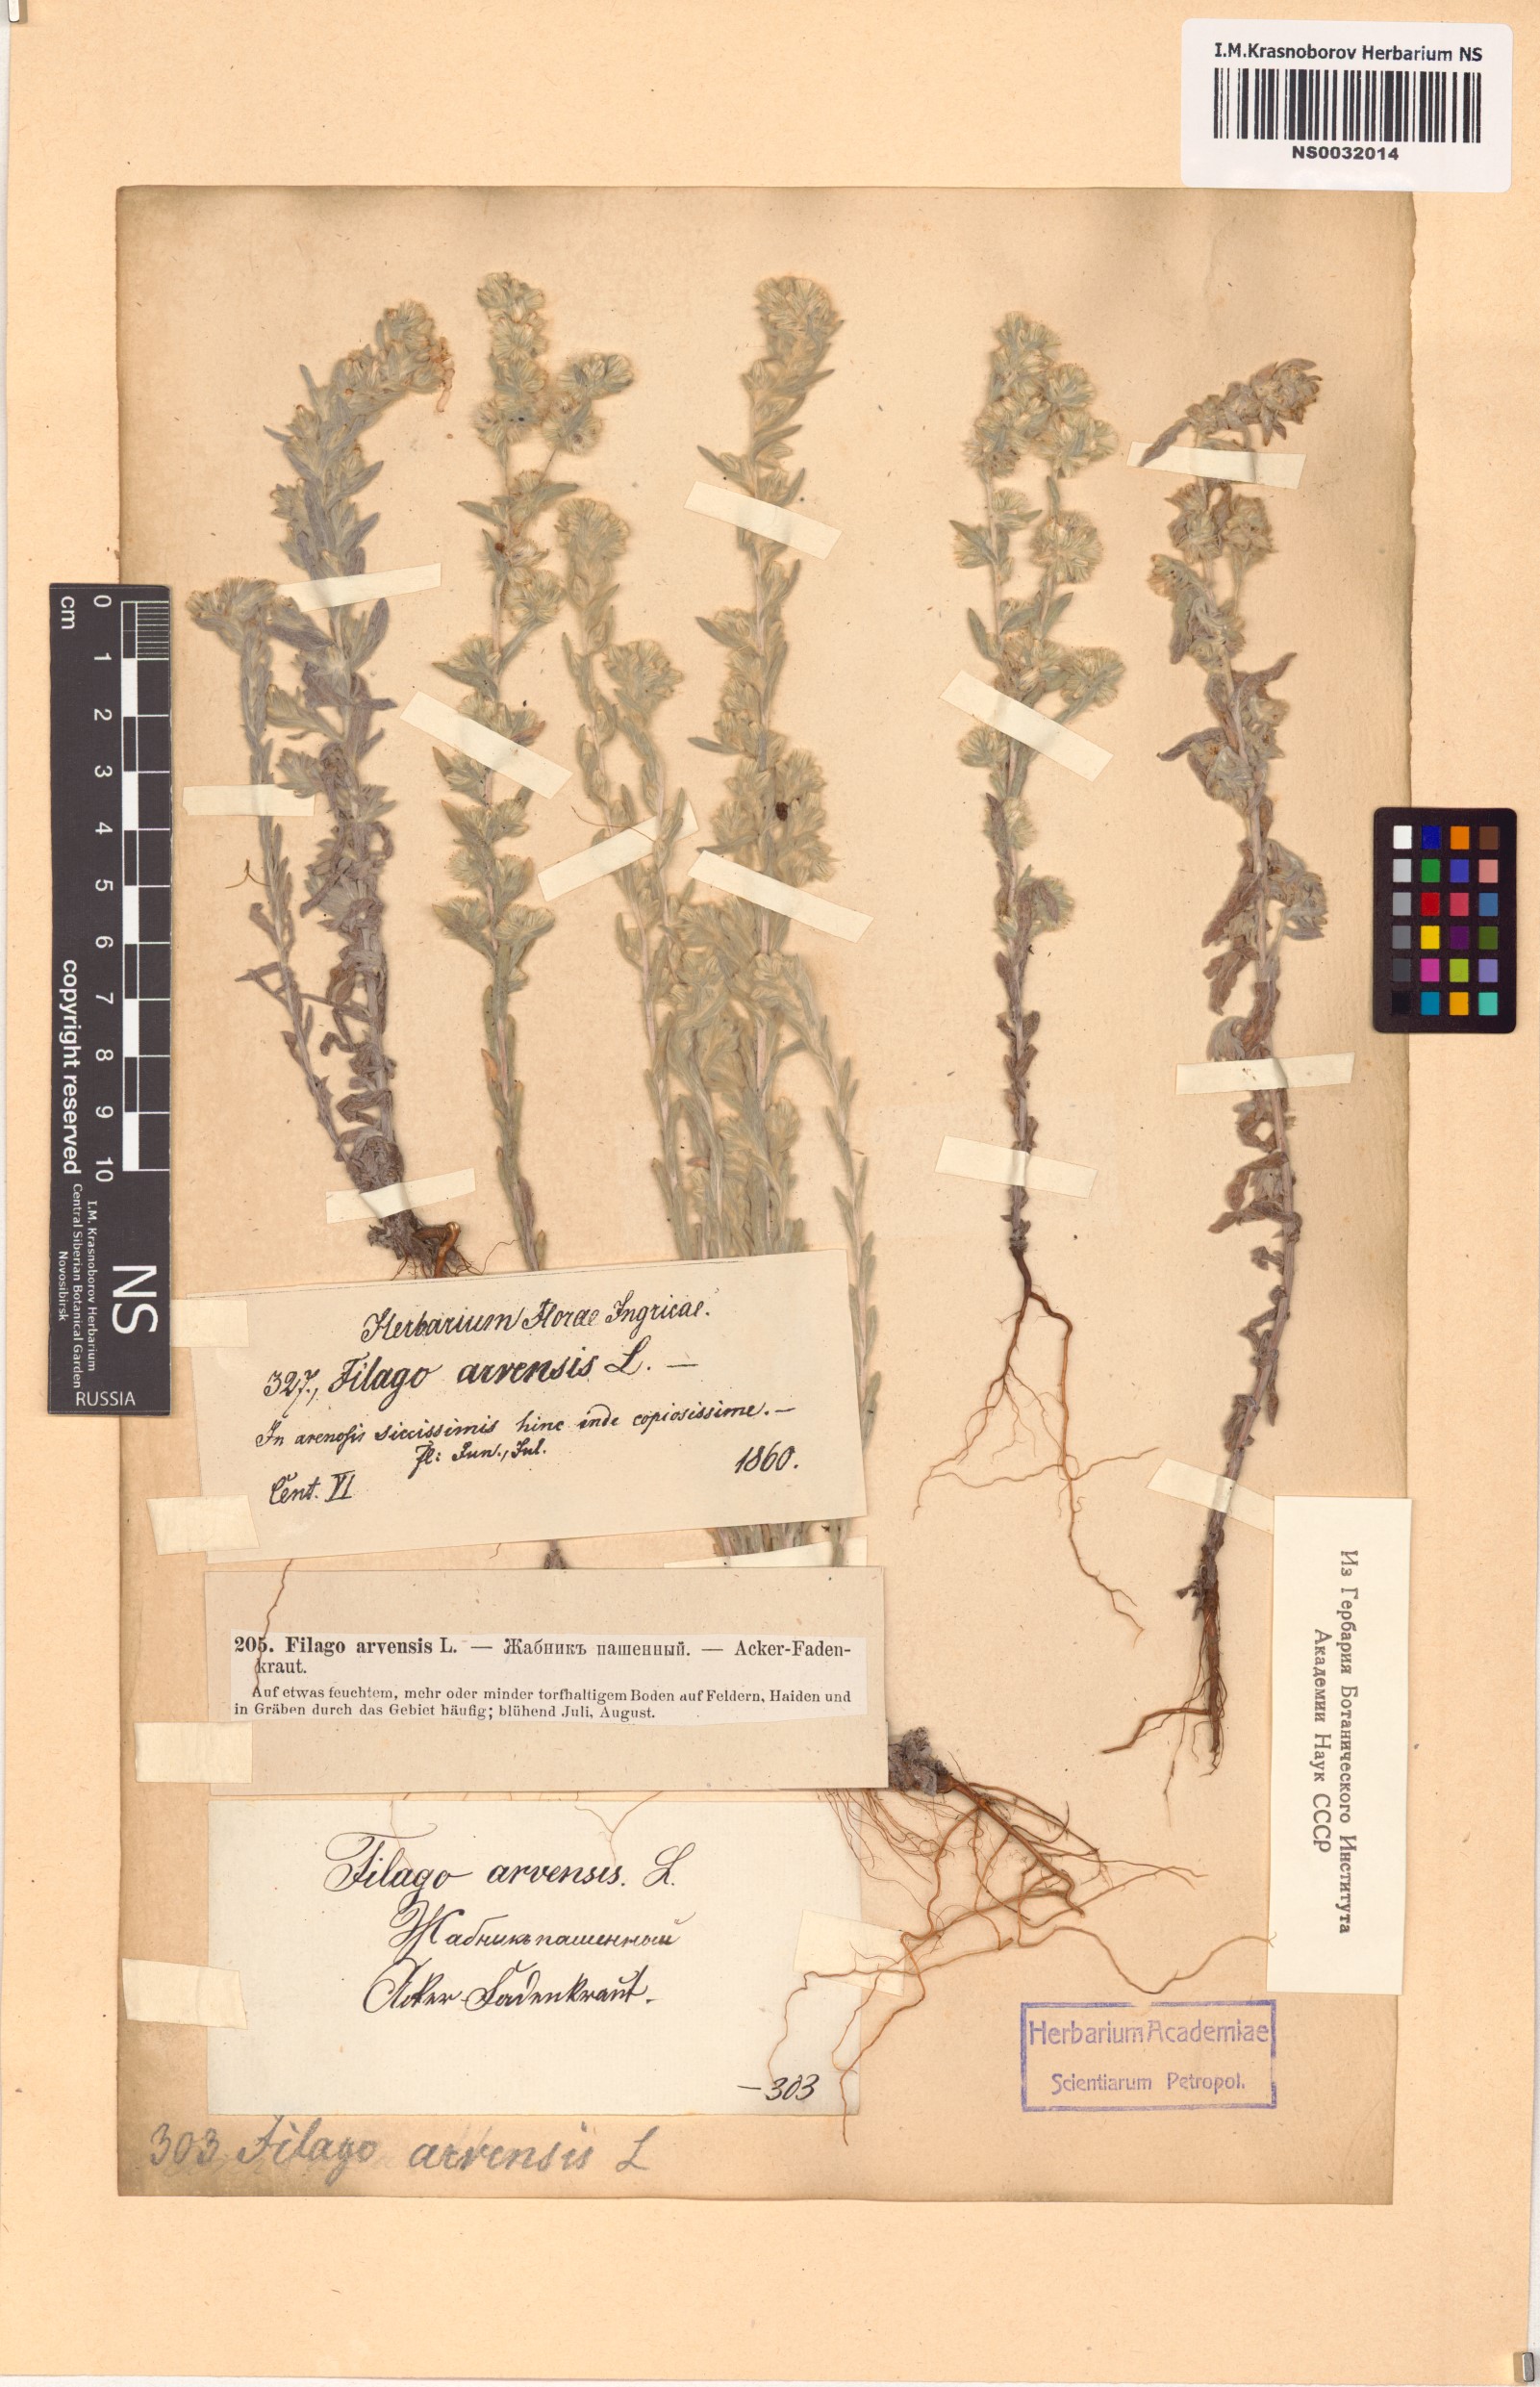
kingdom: Plantae
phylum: Tracheophyta
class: Magnoliopsida
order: Asterales
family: Asteraceae
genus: Filago
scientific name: Filago arvensis
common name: Field cudweed
